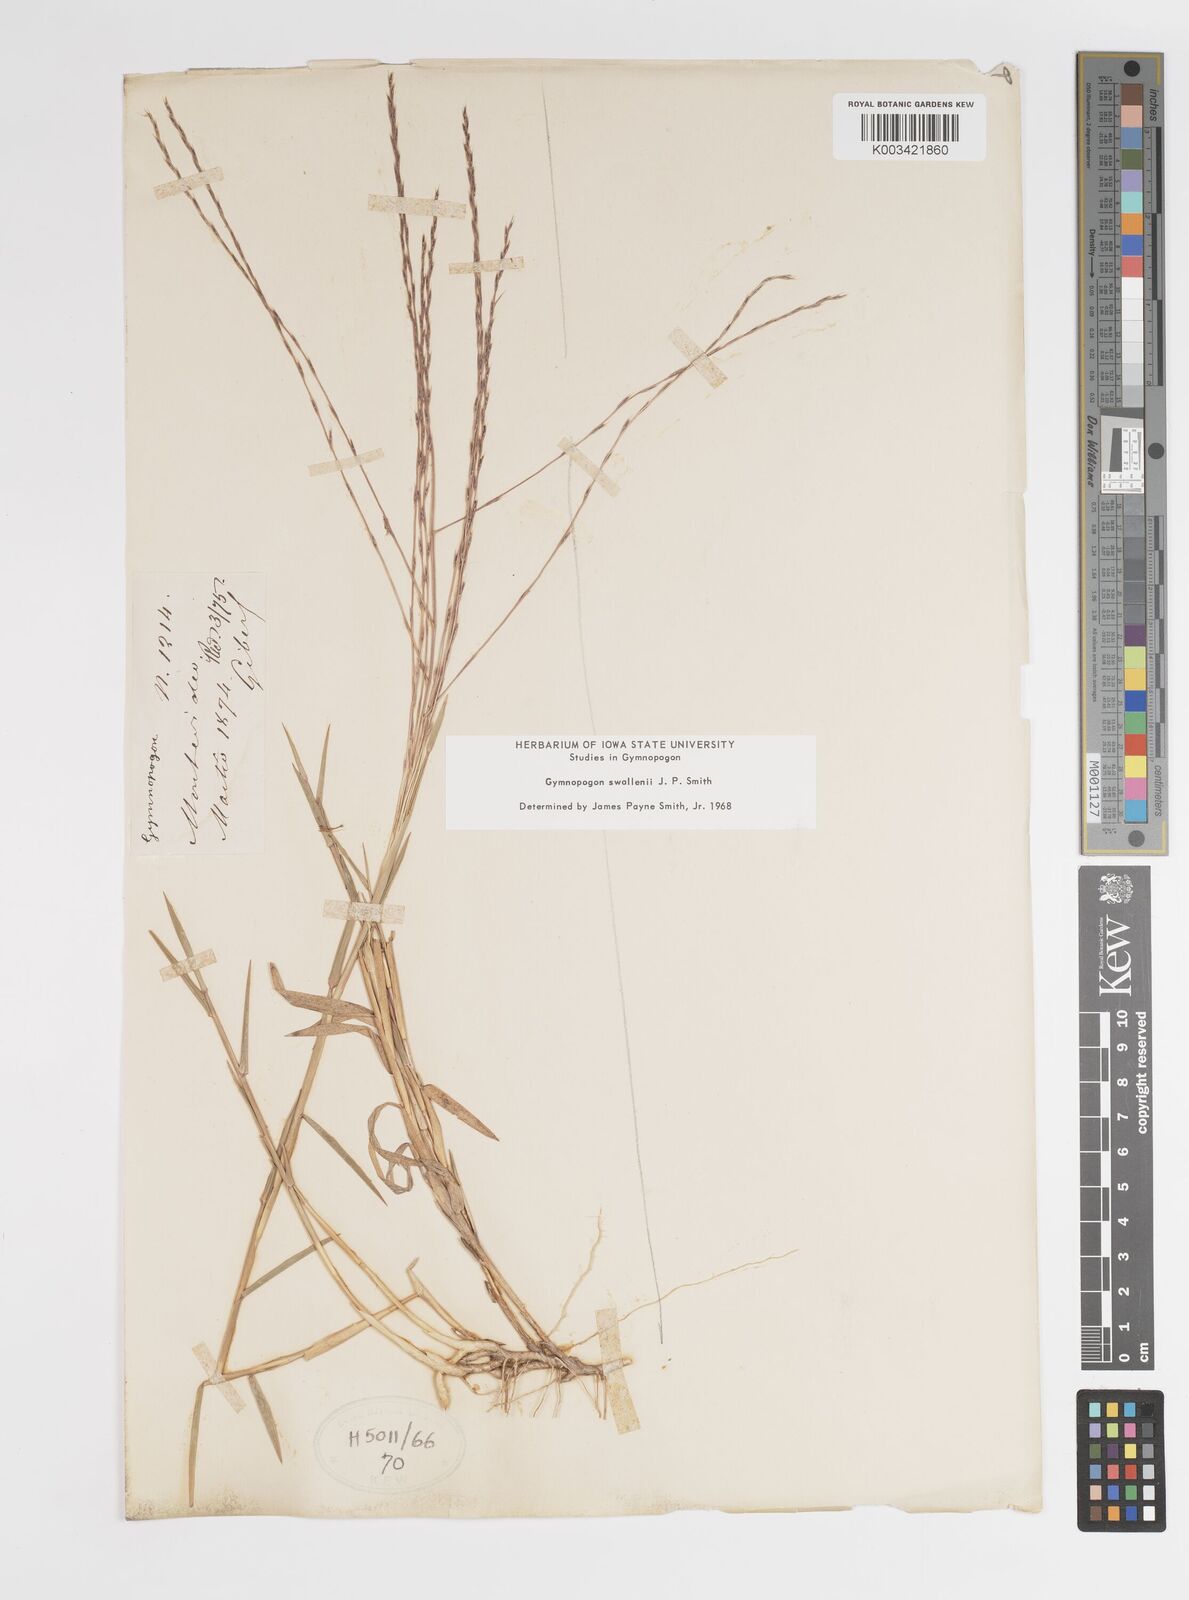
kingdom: Plantae
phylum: Tracheophyta
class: Liliopsida
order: Poales
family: Poaceae
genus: Gymnopogon
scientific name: Gymnopogon legrandii
